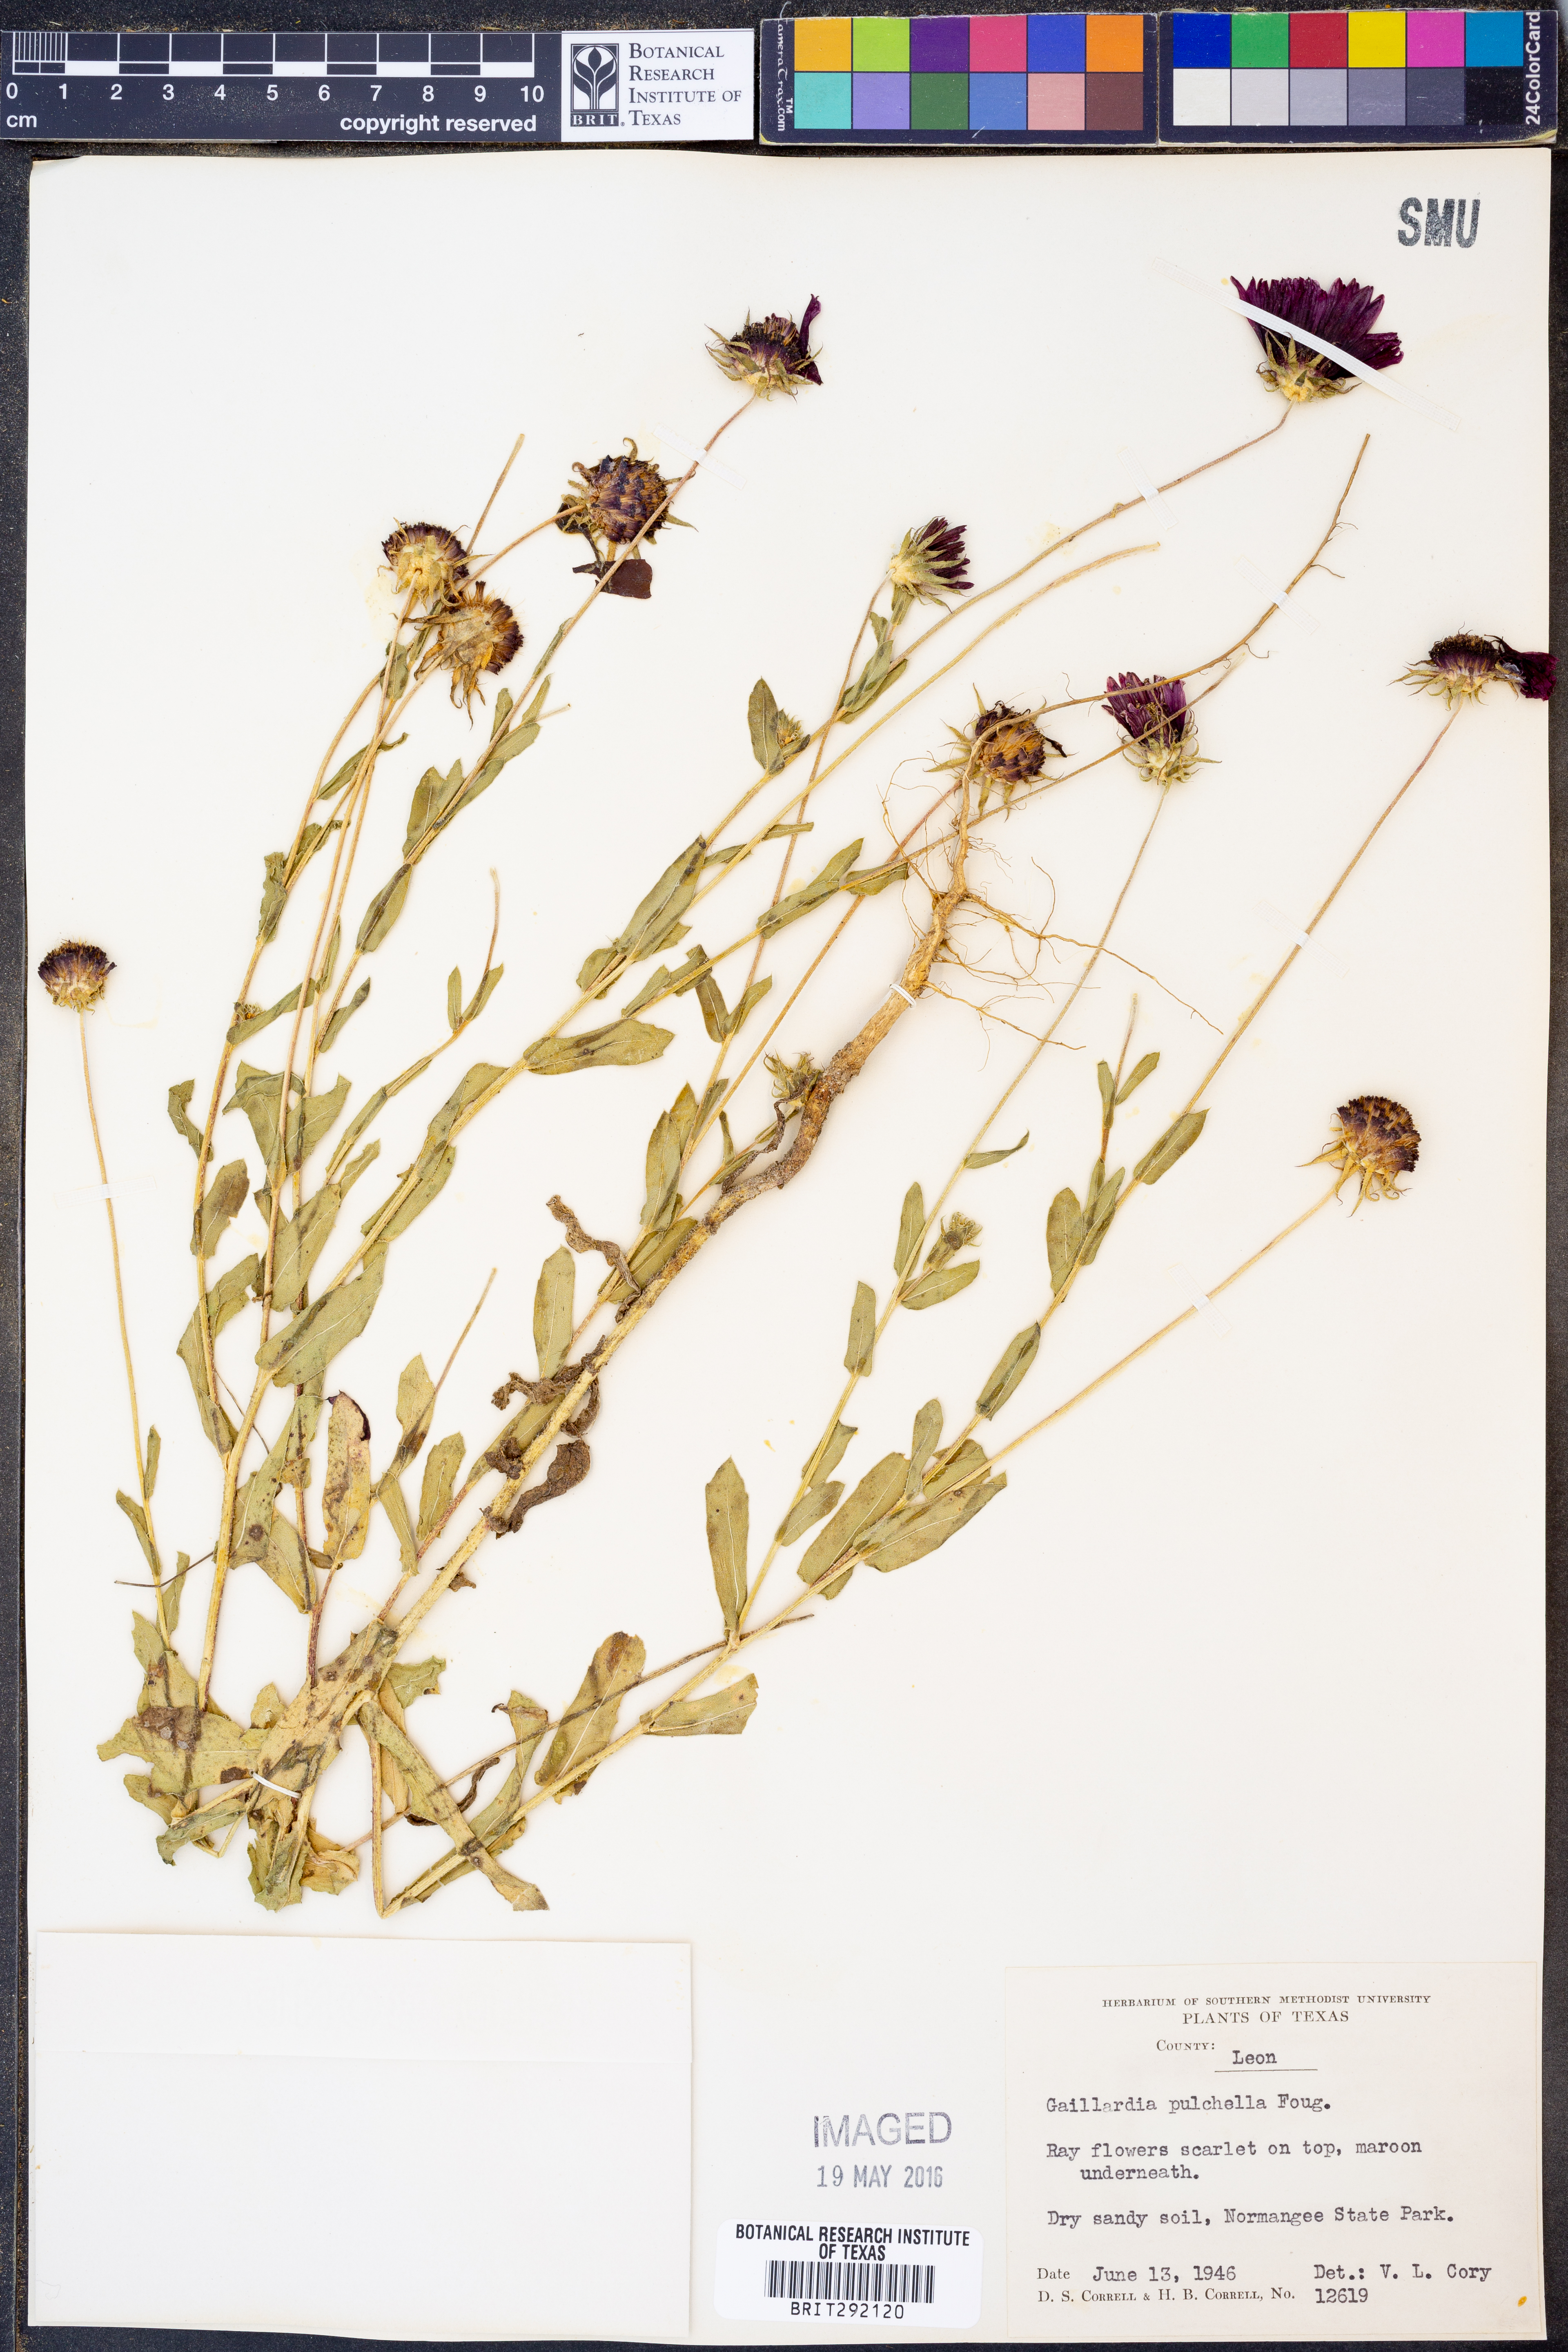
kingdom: Plantae
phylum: Tracheophyta
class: Magnoliopsida
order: Asterales
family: Asteraceae
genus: Gaillardia
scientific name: Gaillardia pulchella
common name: Firewheel
